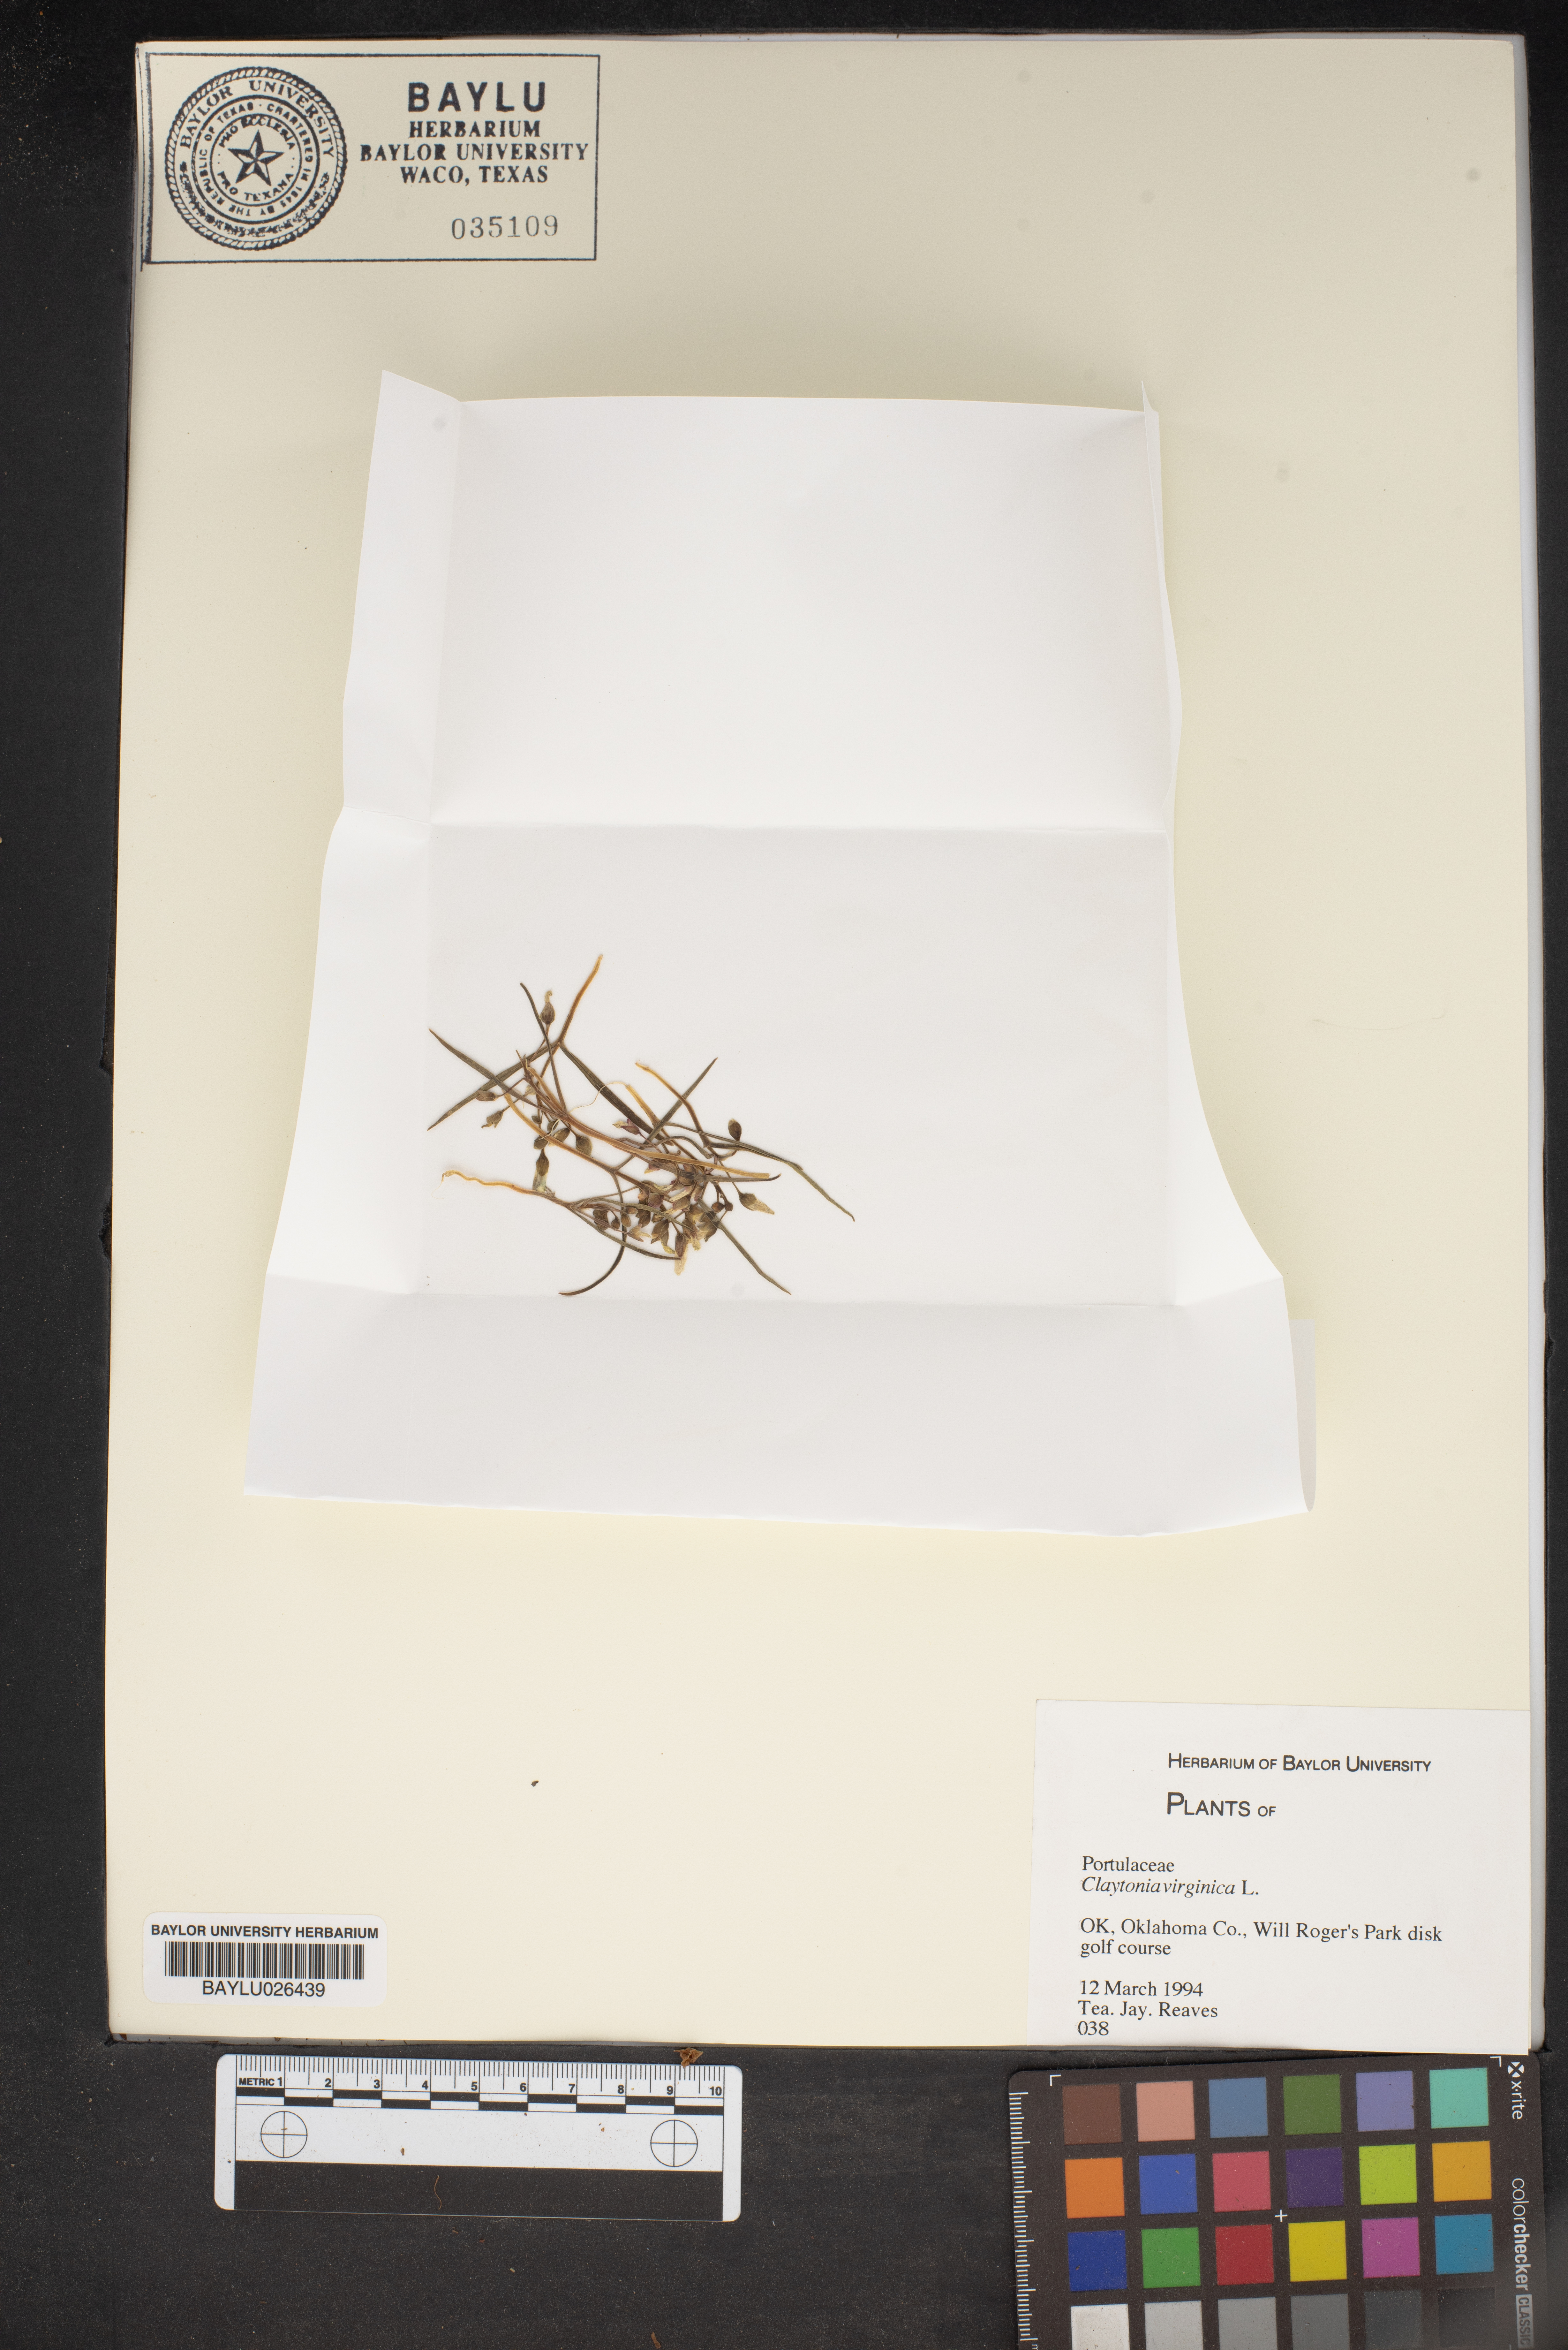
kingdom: Plantae
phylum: Tracheophyta
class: Magnoliopsida
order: Caryophyllales
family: Montiaceae
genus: Claytonia
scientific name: Claytonia virginica
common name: Virginia springbeauty
